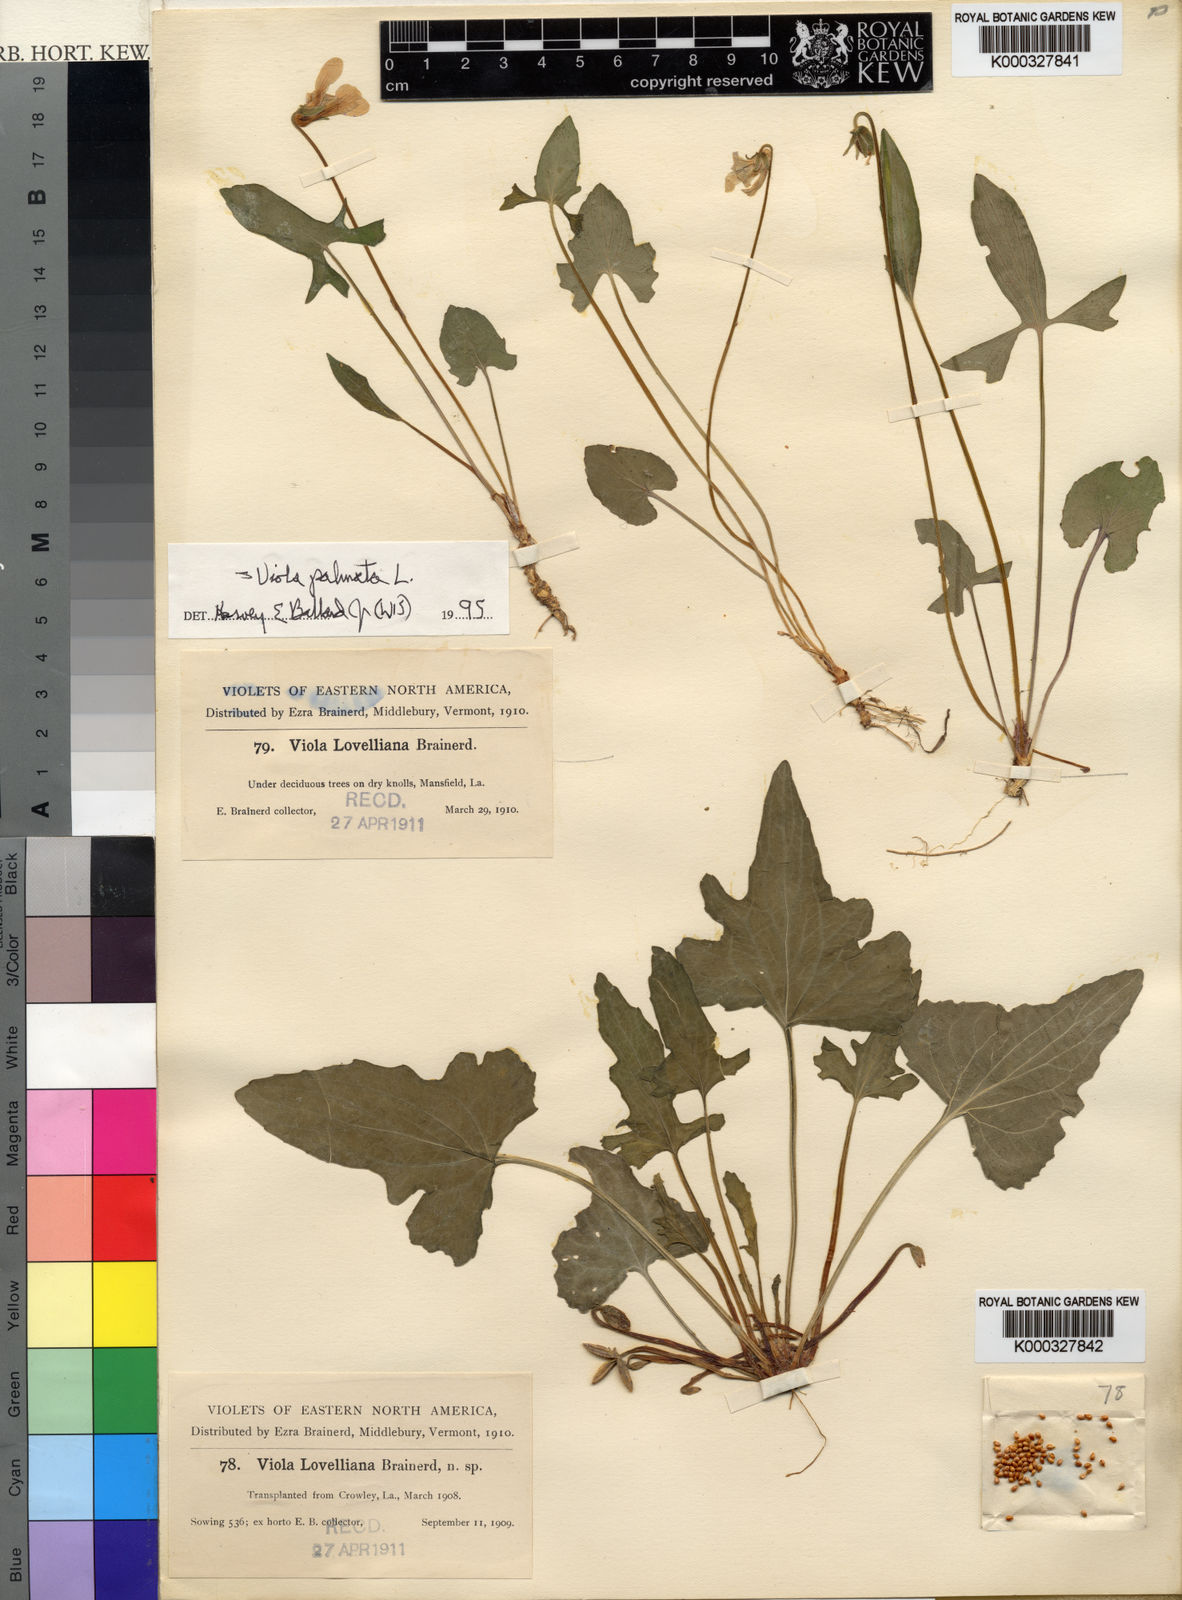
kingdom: Plantae
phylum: Tracheophyta
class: Magnoliopsida
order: Malpighiales
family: Violaceae
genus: Viola
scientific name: Viola lovelliana
